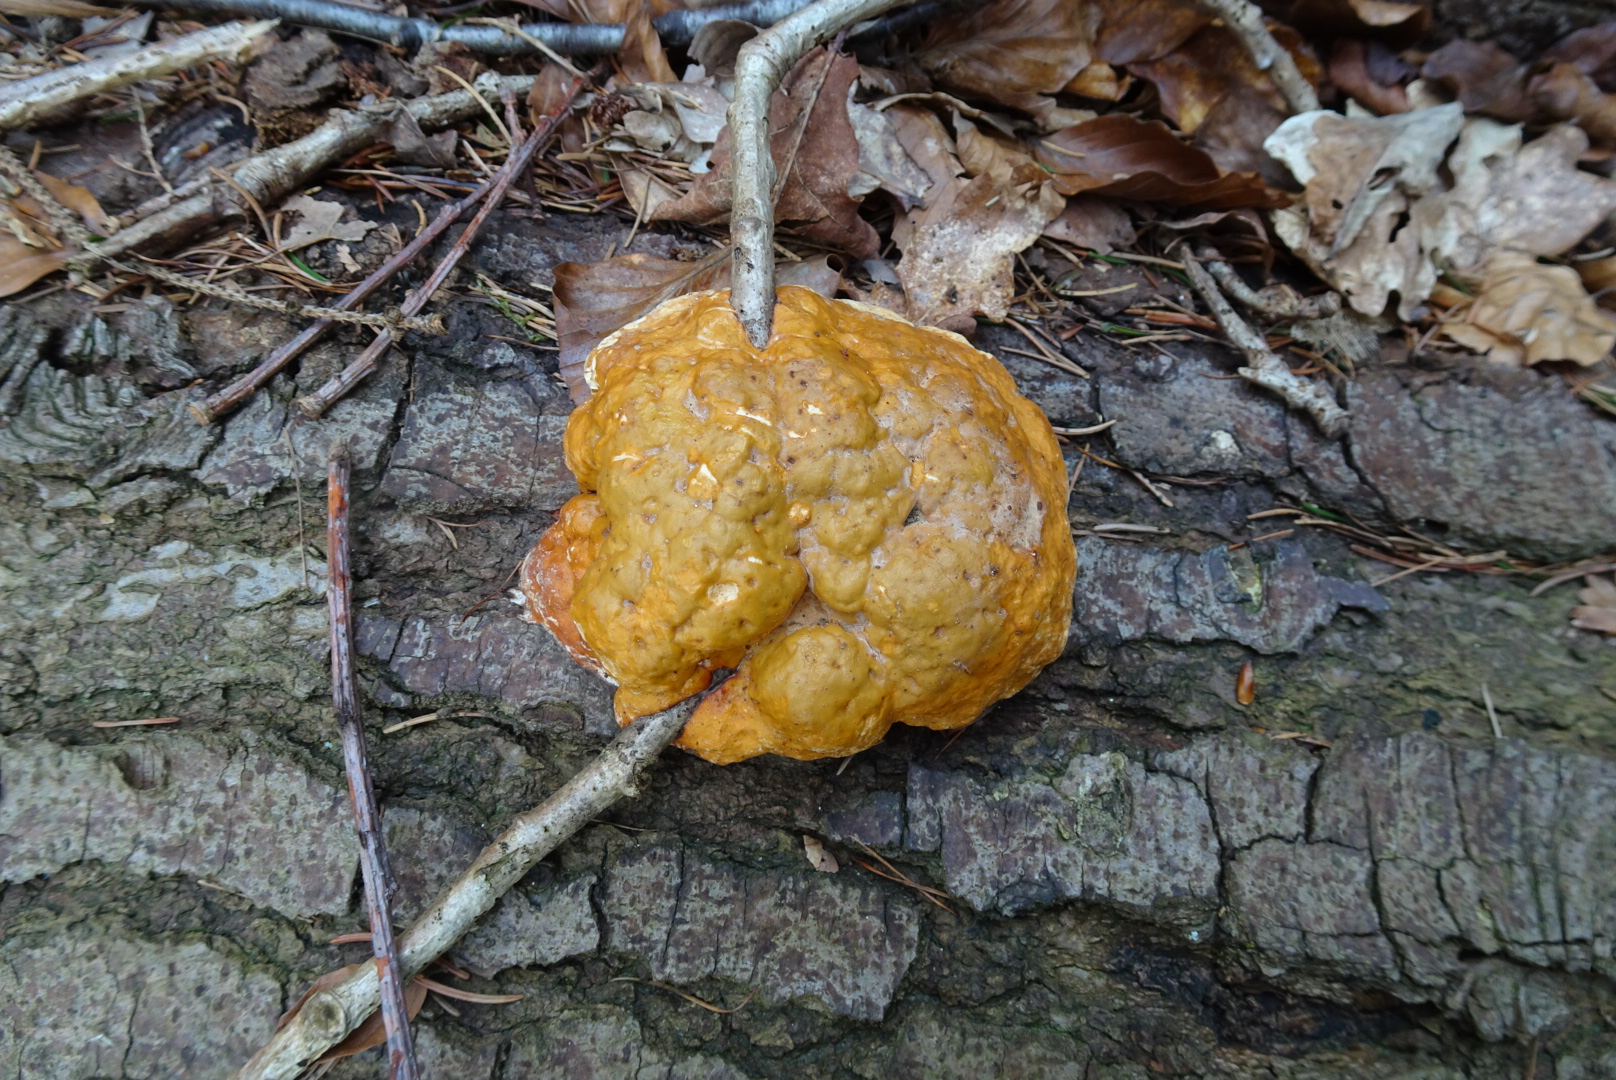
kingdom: Fungi
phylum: Basidiomycota
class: Agaricomycetes
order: Polyporales
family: Fomitopsidaceae
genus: Fomitopsis
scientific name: Fomitopsis pinicola
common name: randbæltet hovporesvamp
